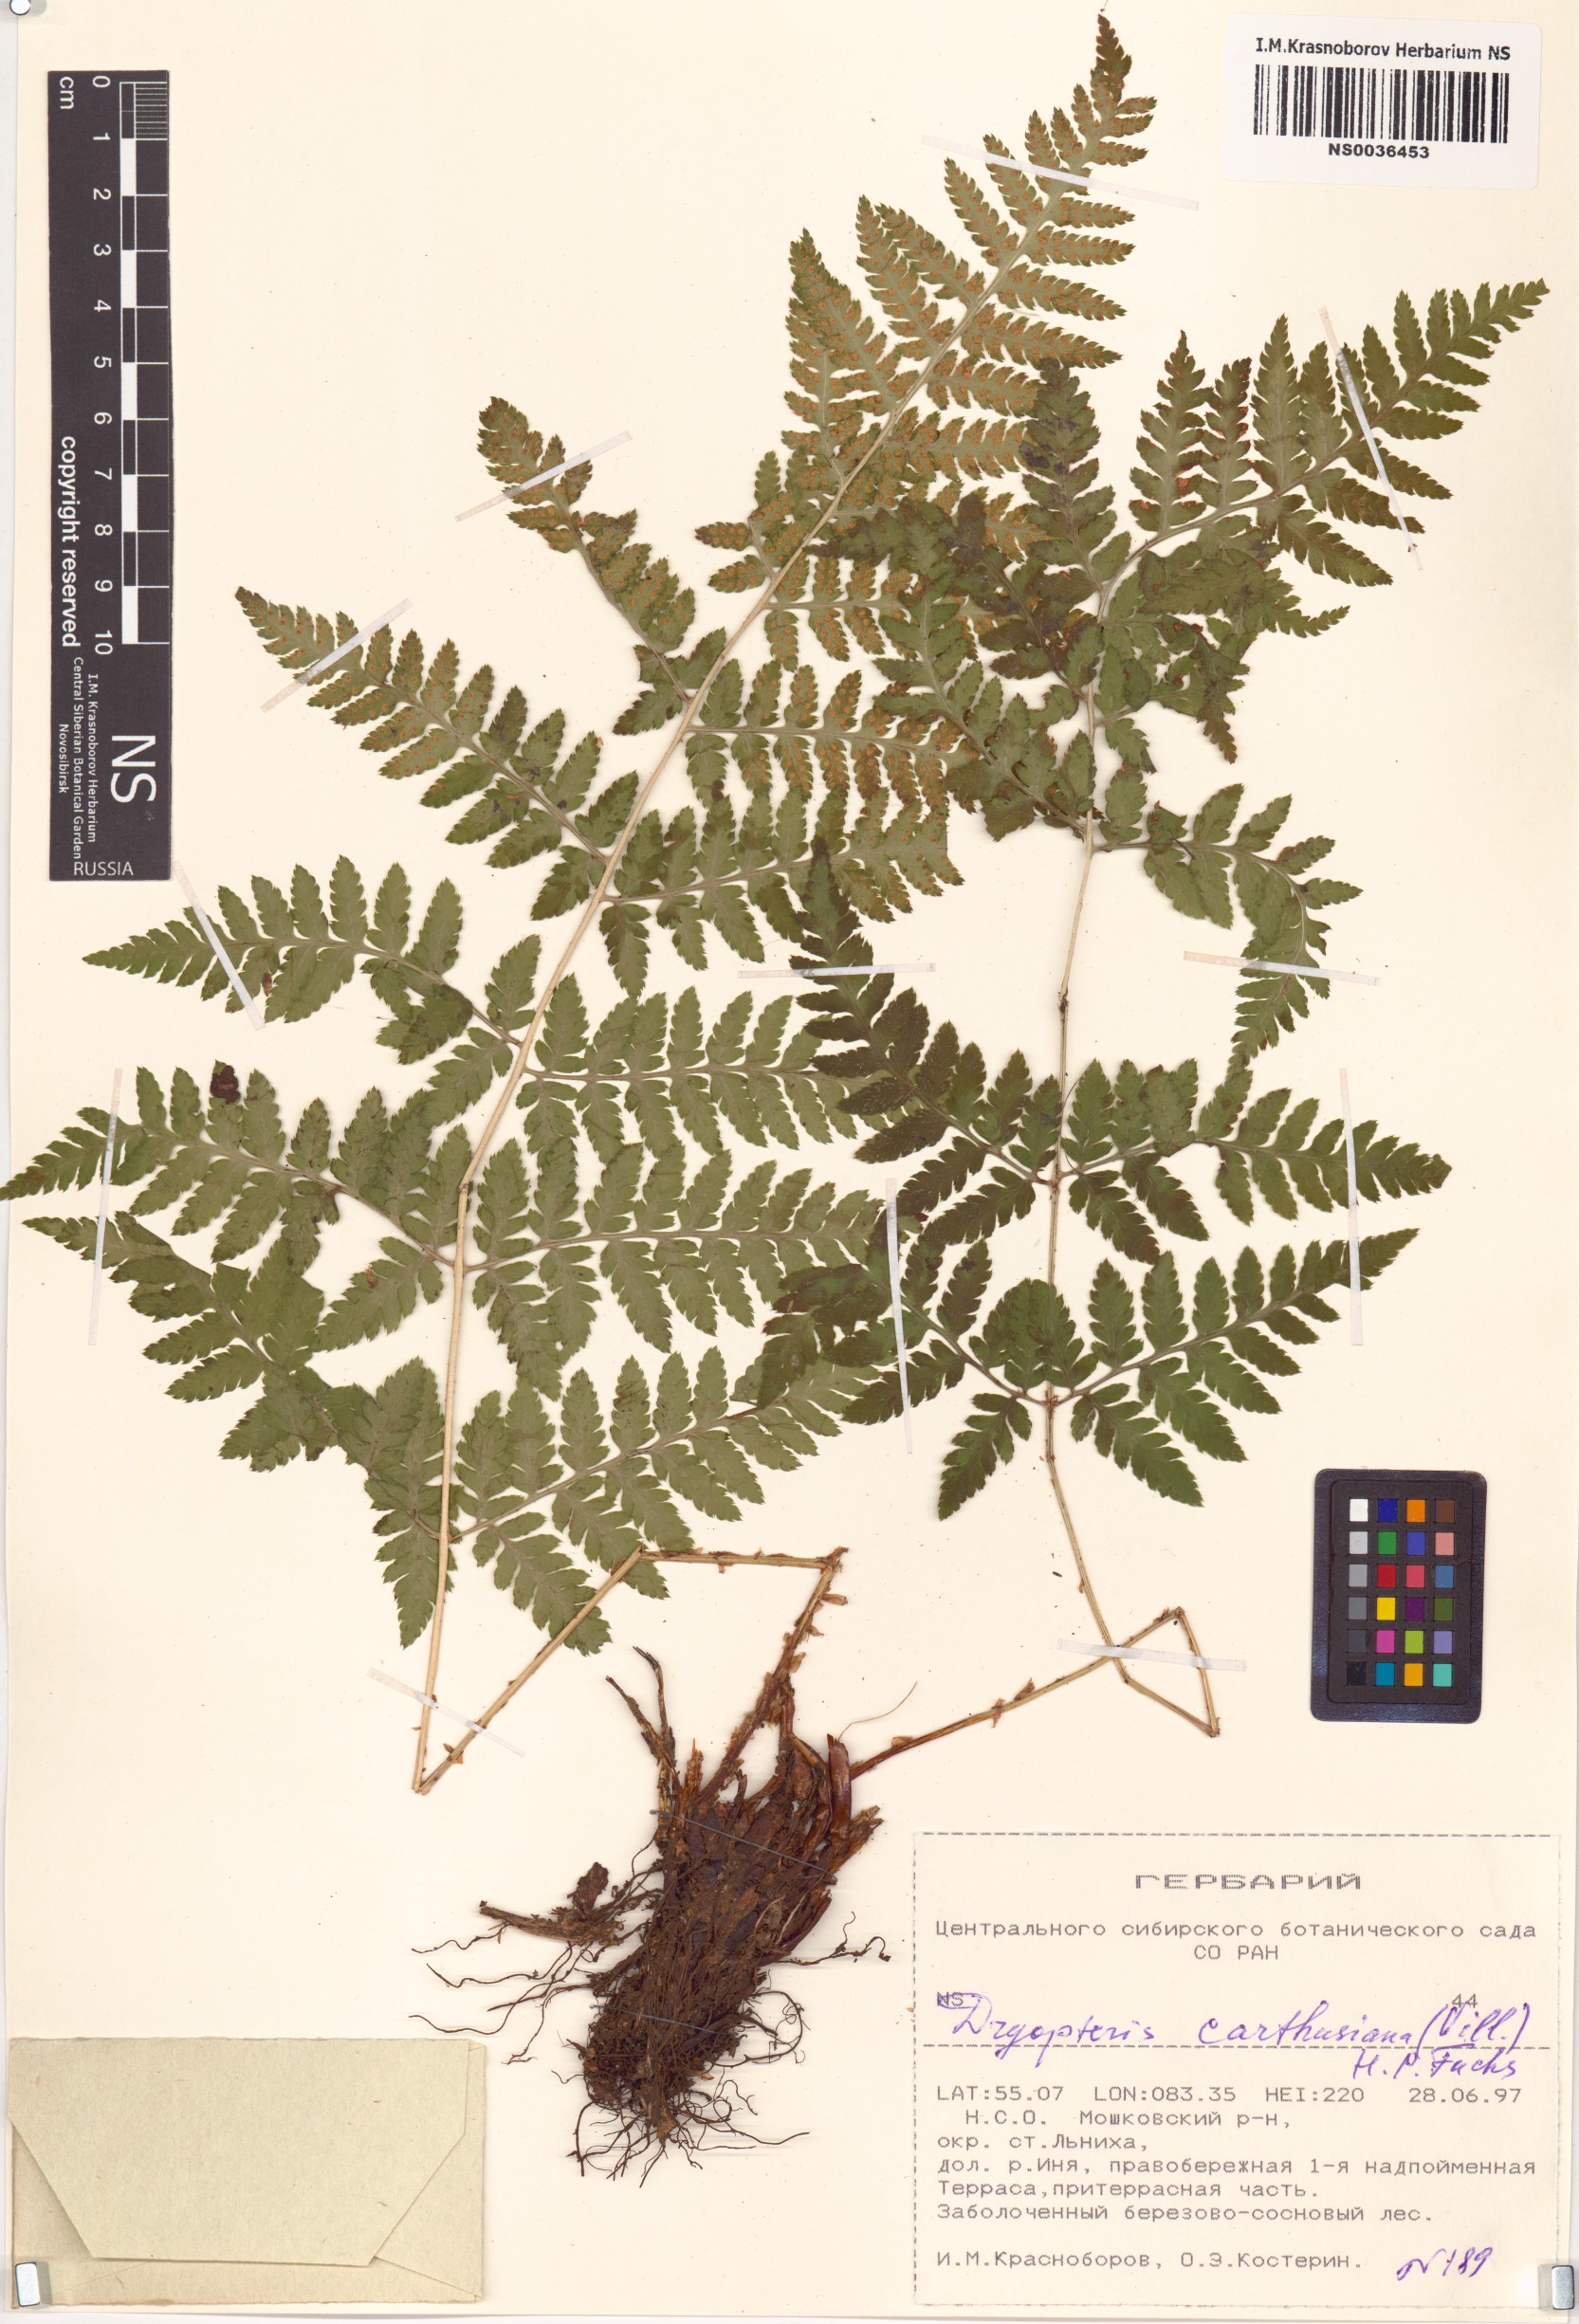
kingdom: Plantae
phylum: Tracheophyta
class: Polypodiopsida
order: Polypodiales
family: Dryopteridaceae
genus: Dryopteris
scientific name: Dryopteris carthusiana
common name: Narrow buckler-fern
